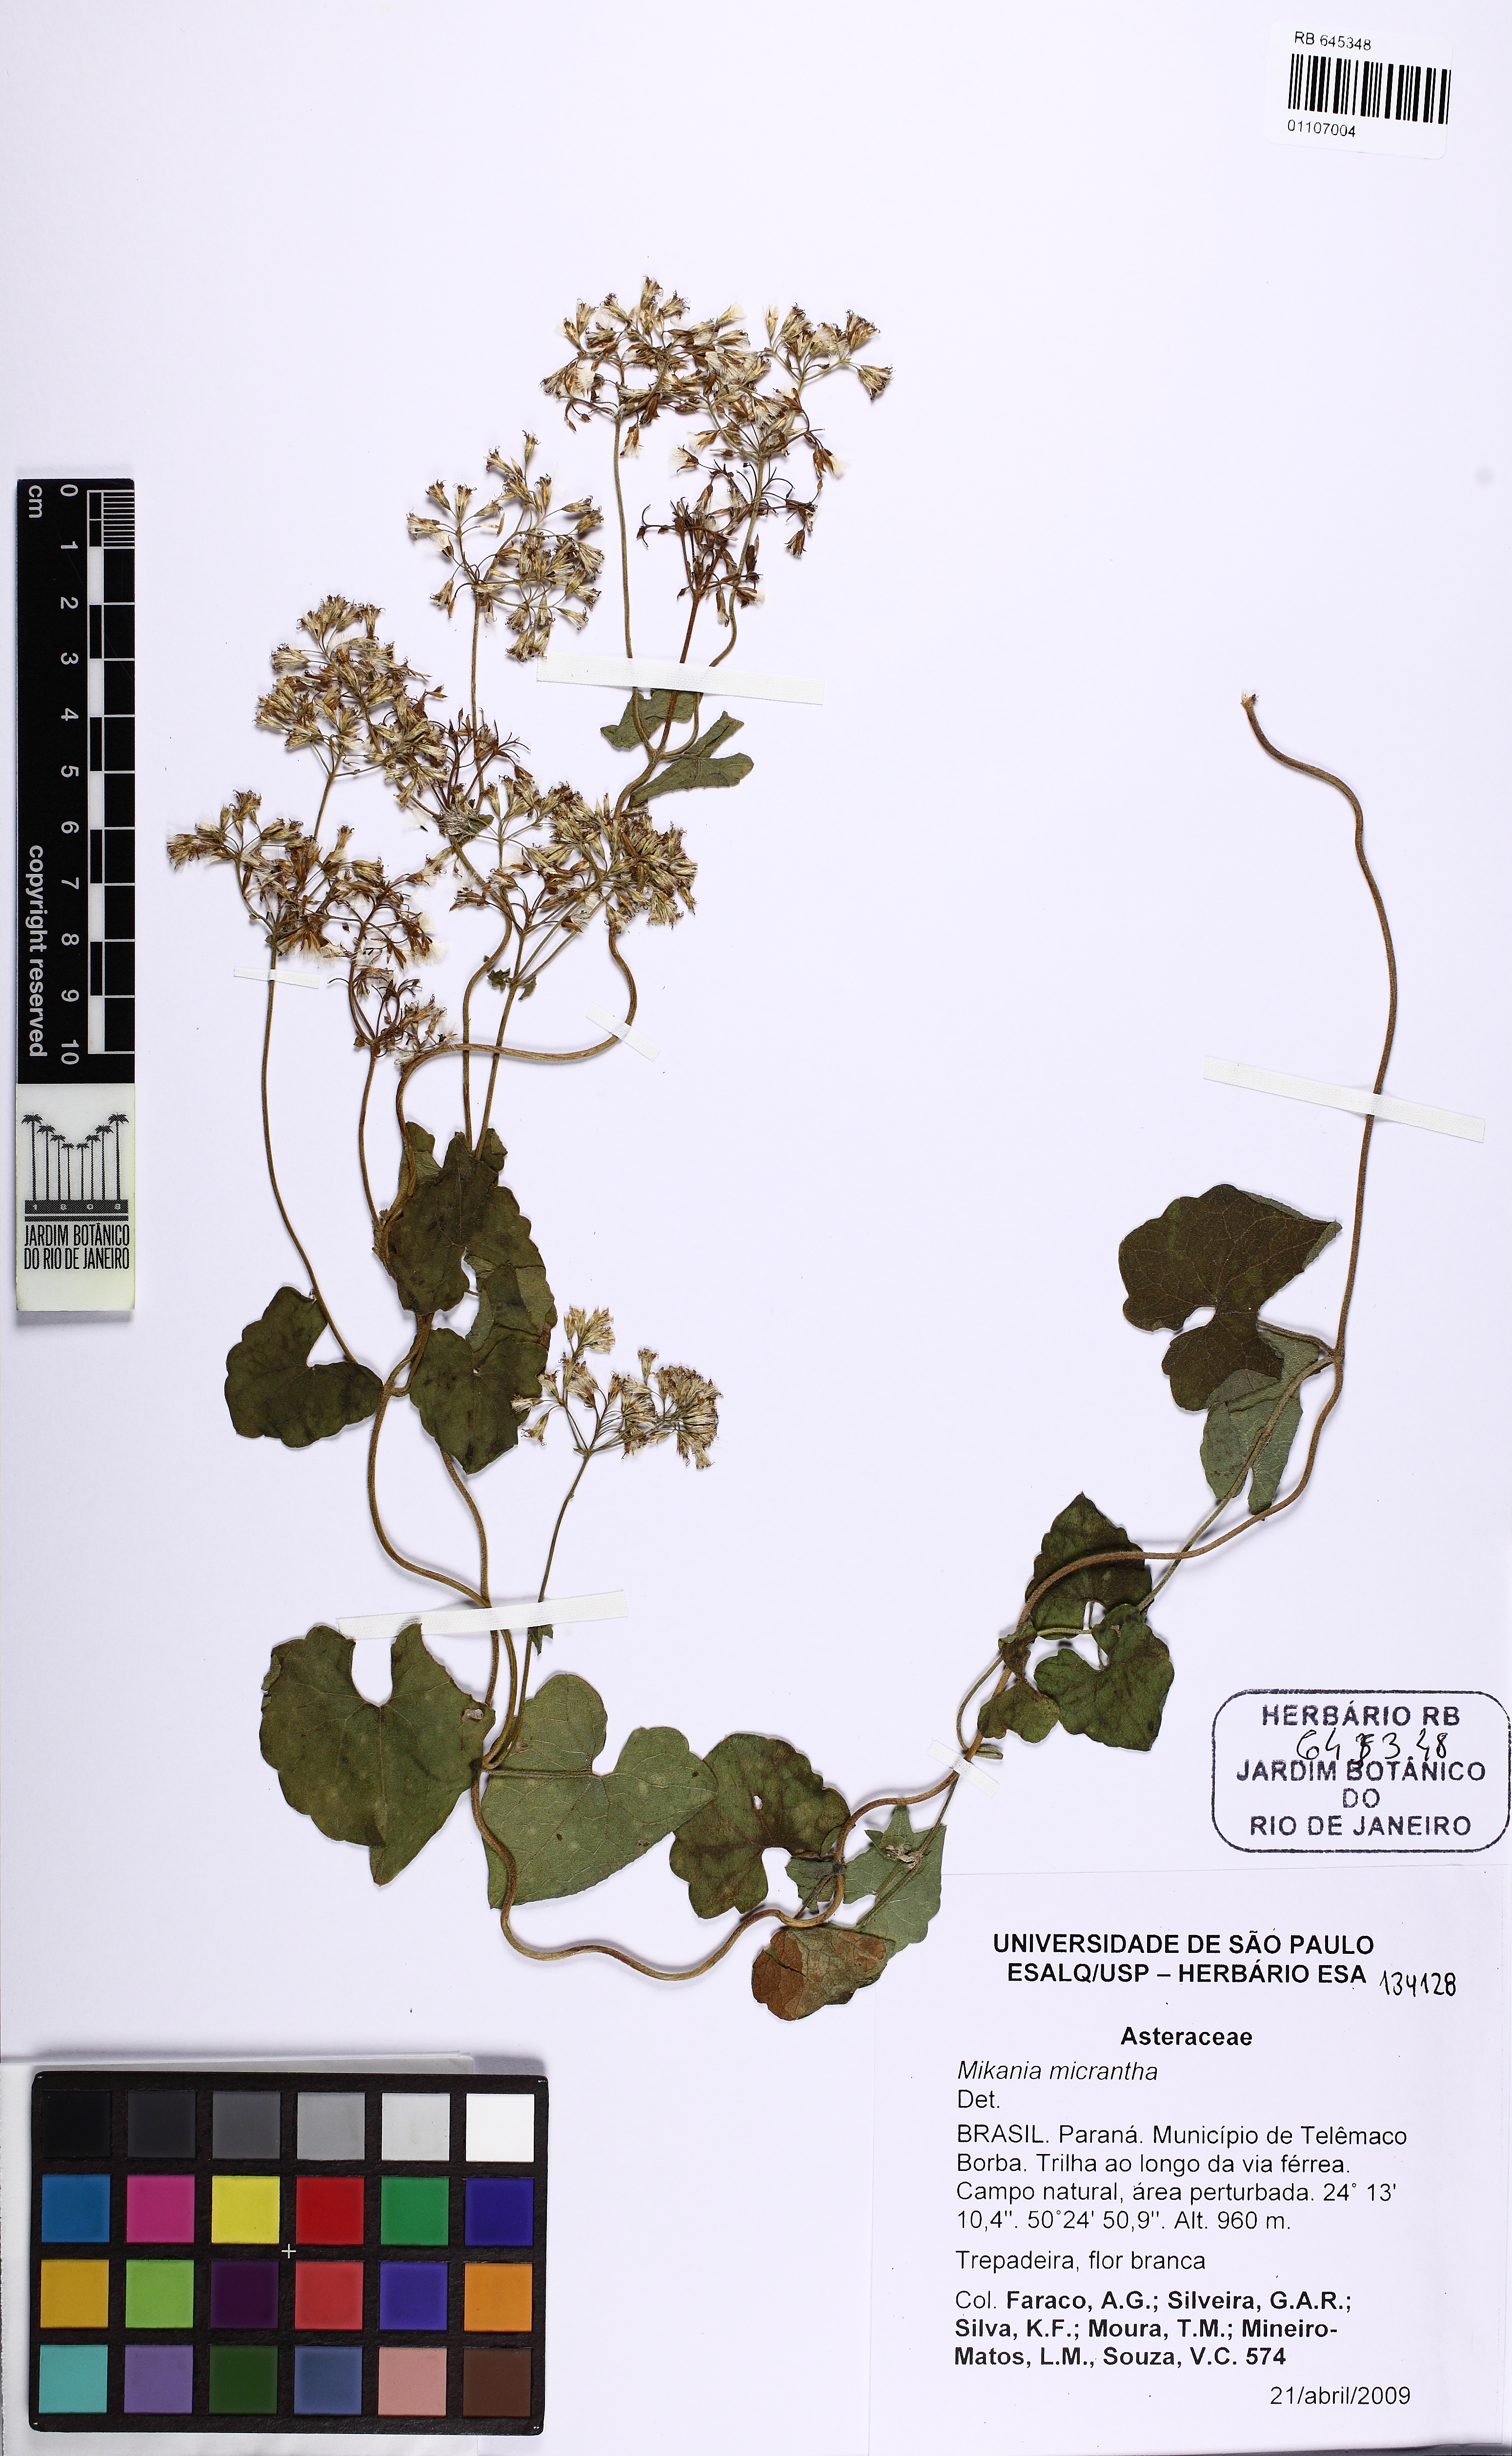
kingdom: Plantae
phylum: Tracheophyta
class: Magnoliopsida
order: Asterales
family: Asteraceae
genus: Mikania
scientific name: Mikania micrantha
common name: Mile-a-minute
